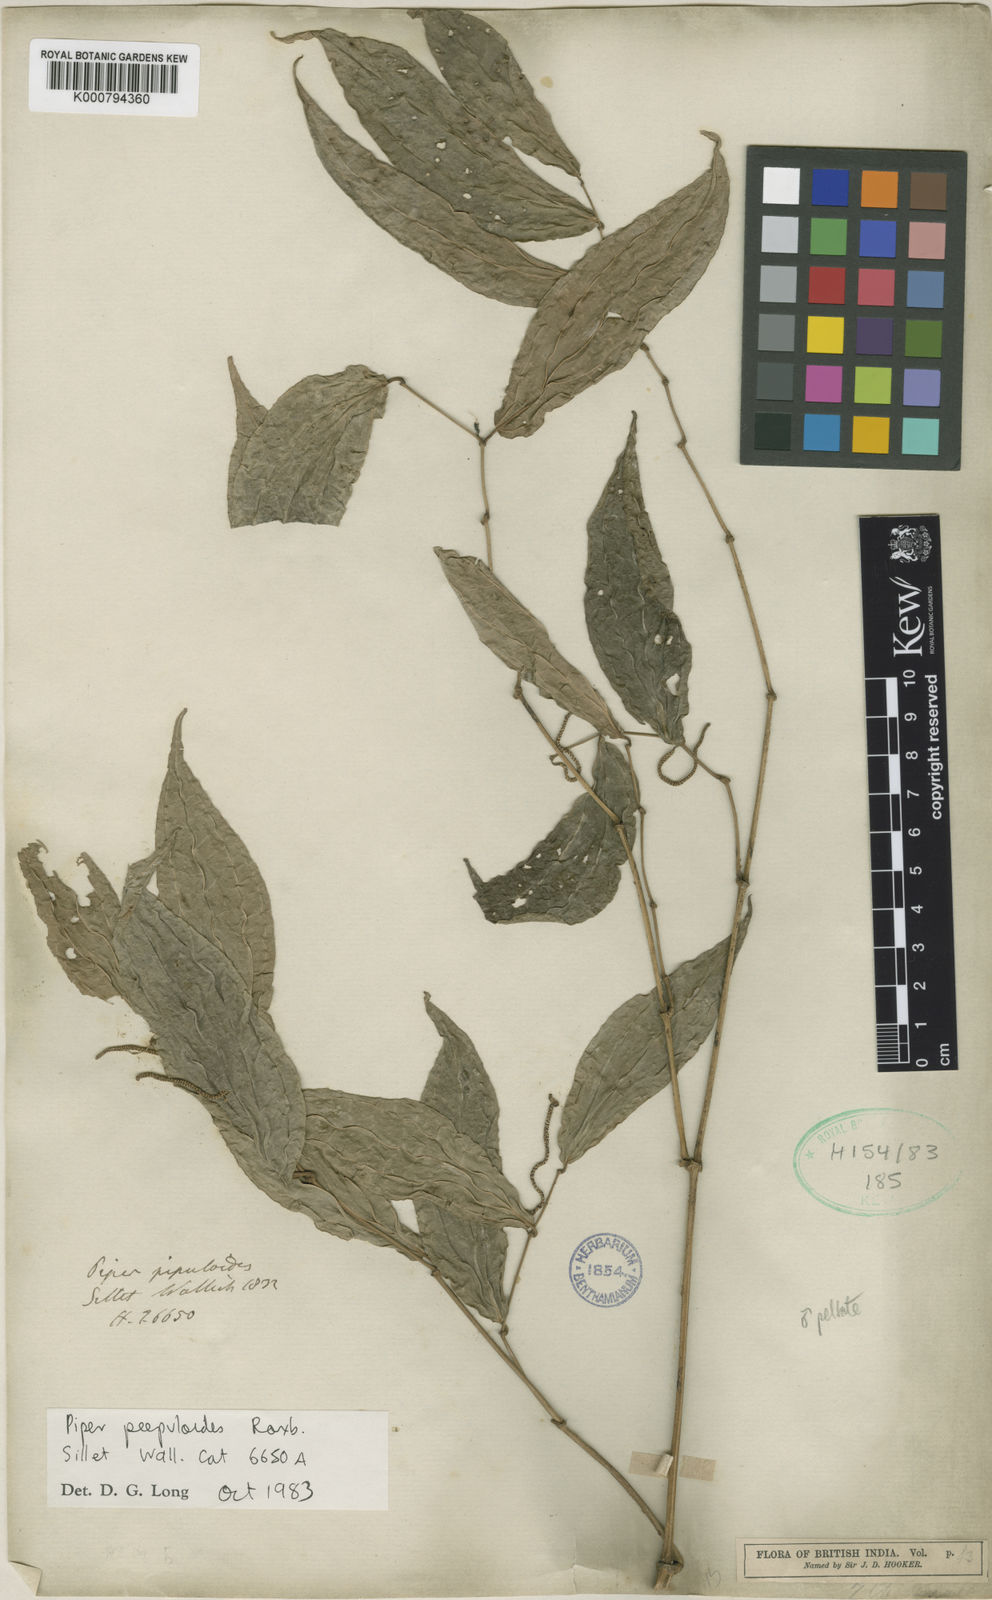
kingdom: Plantae
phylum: Tracheophyta
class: Magnoliopsida
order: Piperales
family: Piperaceae
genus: Piper
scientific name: Piper peepuloides
